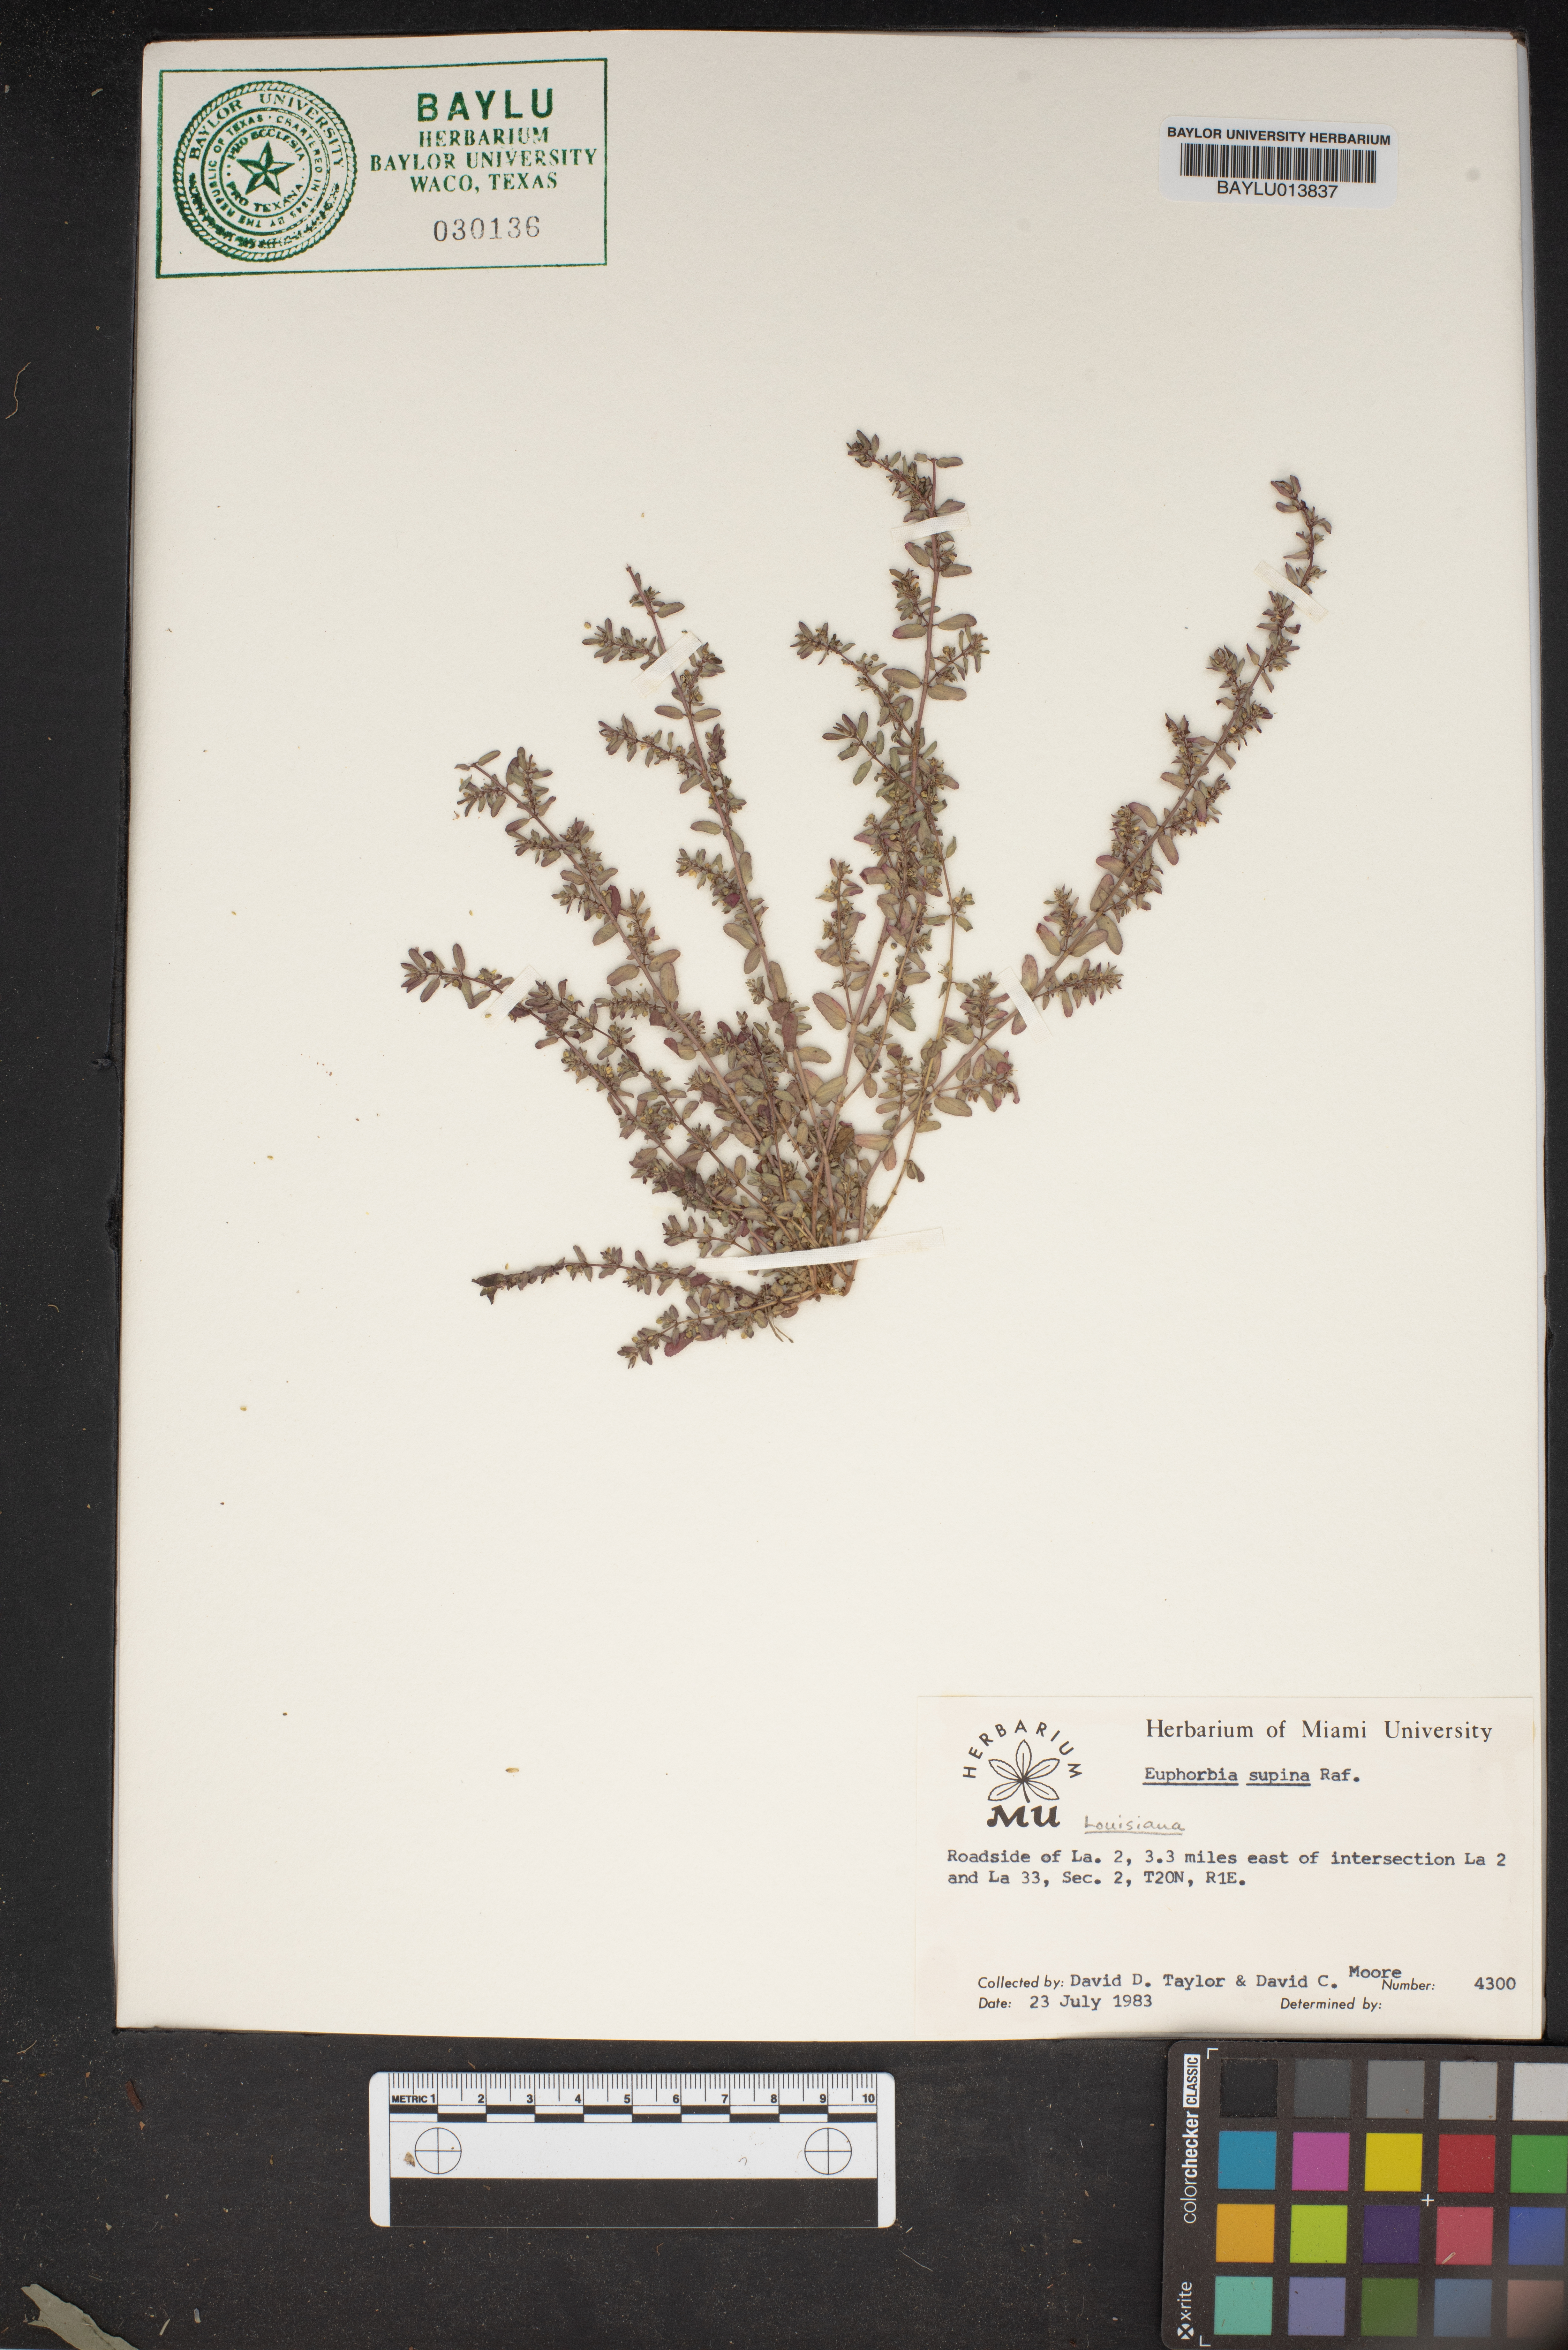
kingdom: Plantae
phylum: Tracheophyta
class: Magnoliopsida
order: Malpighiales
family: Euphorbiaceae
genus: Euphorbia
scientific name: Euphorbia maculata
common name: Spotted spurge
